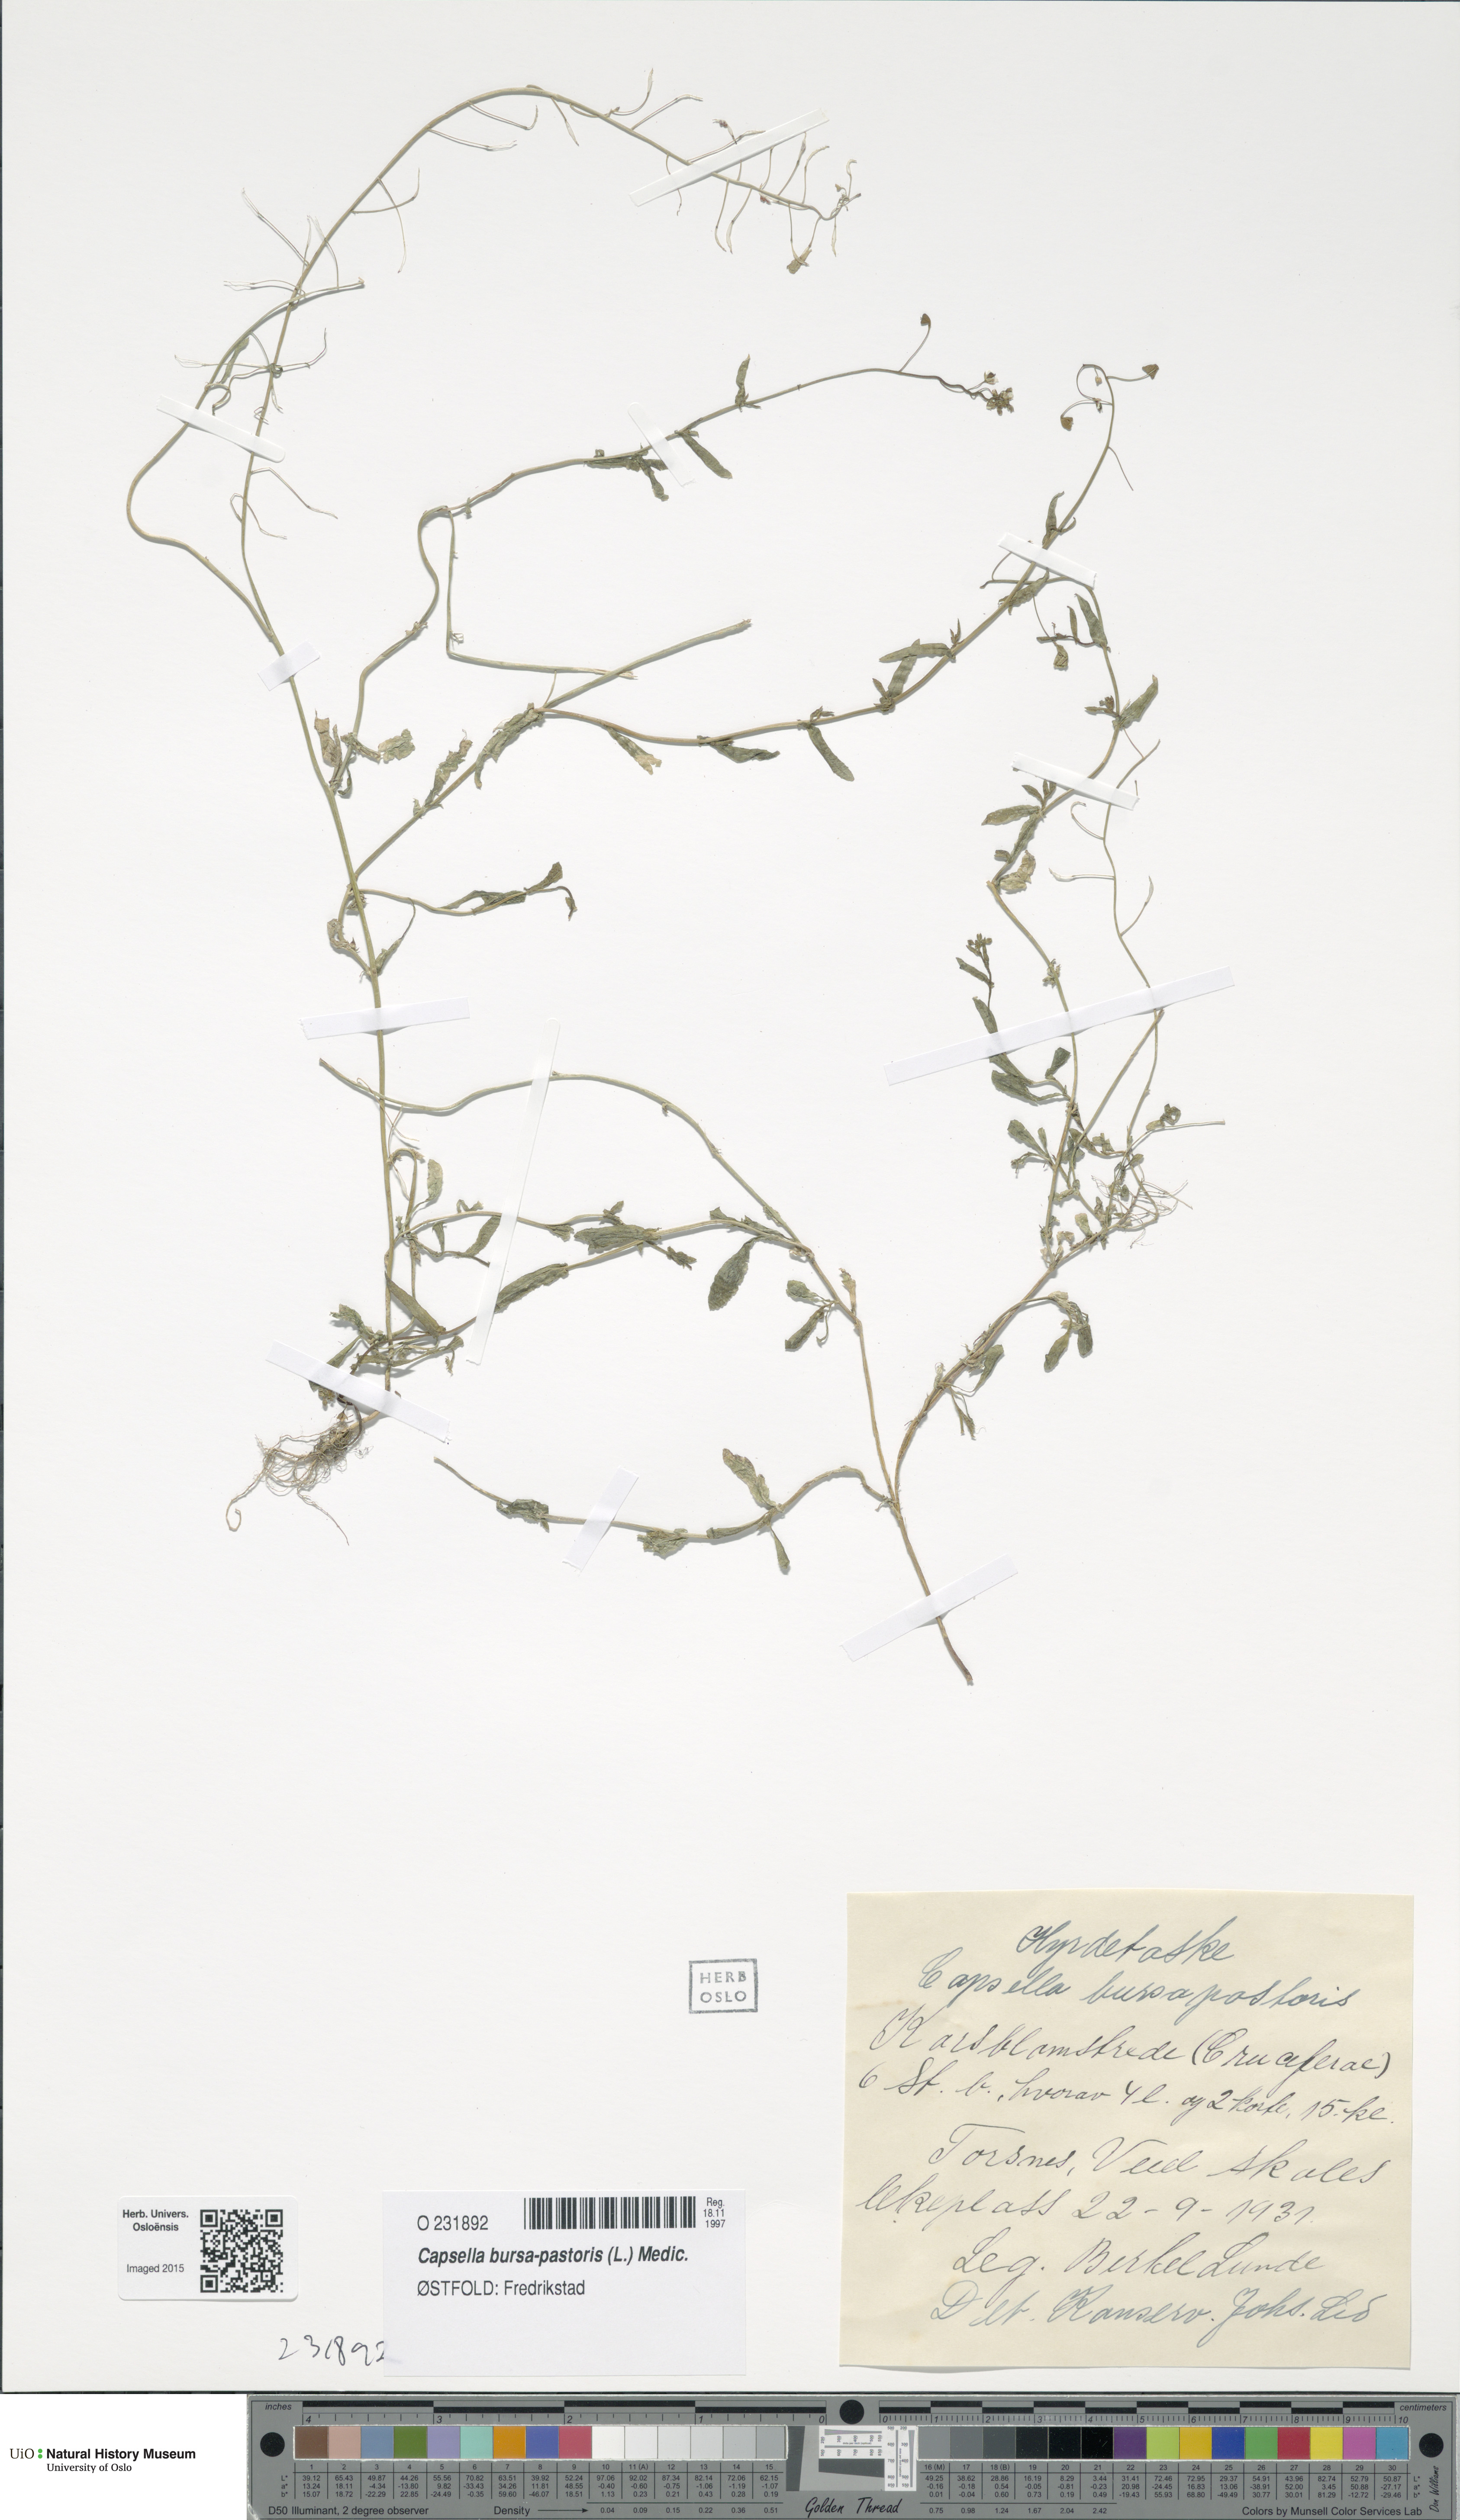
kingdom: Plantae
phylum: Tracheophyta
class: Magnoliopsida
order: Brassicales
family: Brassicaceae
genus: Capsella
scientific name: Capsella bursa-pastoris
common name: Shepherd's purse
